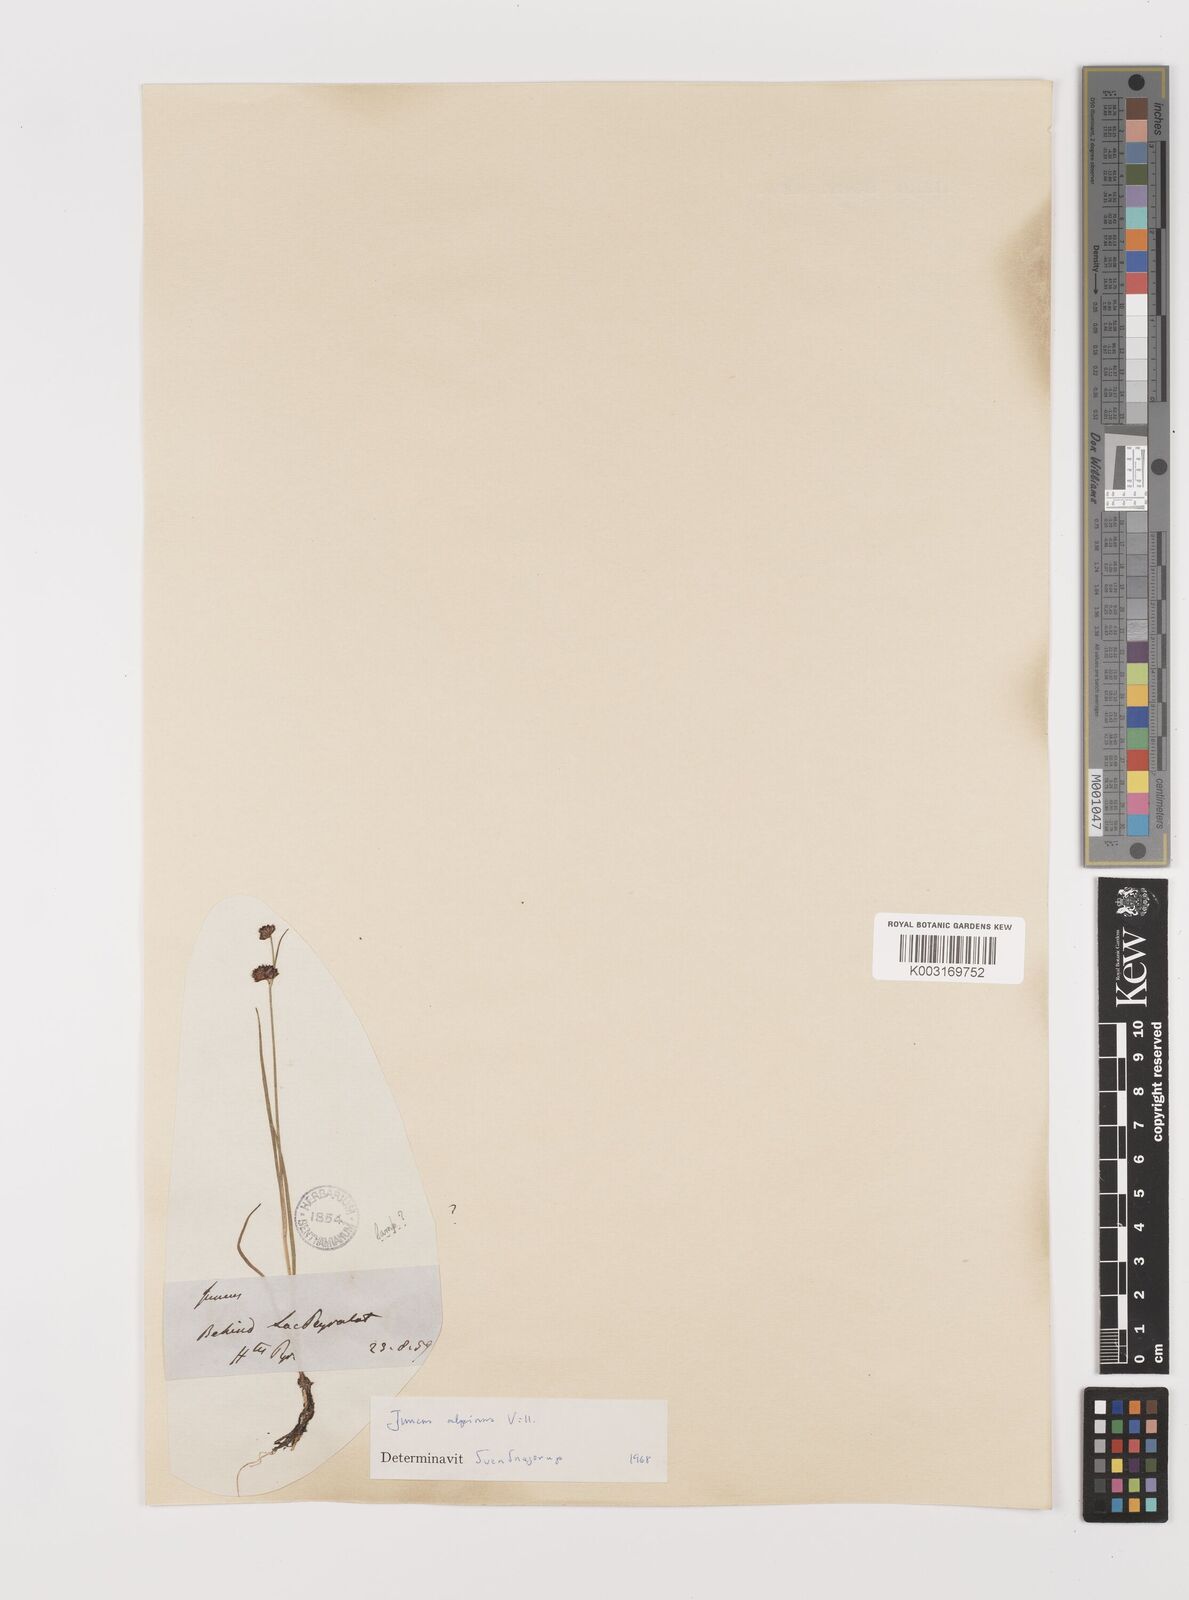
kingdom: Plantae
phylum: Tracheophyta
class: Liliopsida
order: Poales
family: Juncaceae
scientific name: Juncaceae
